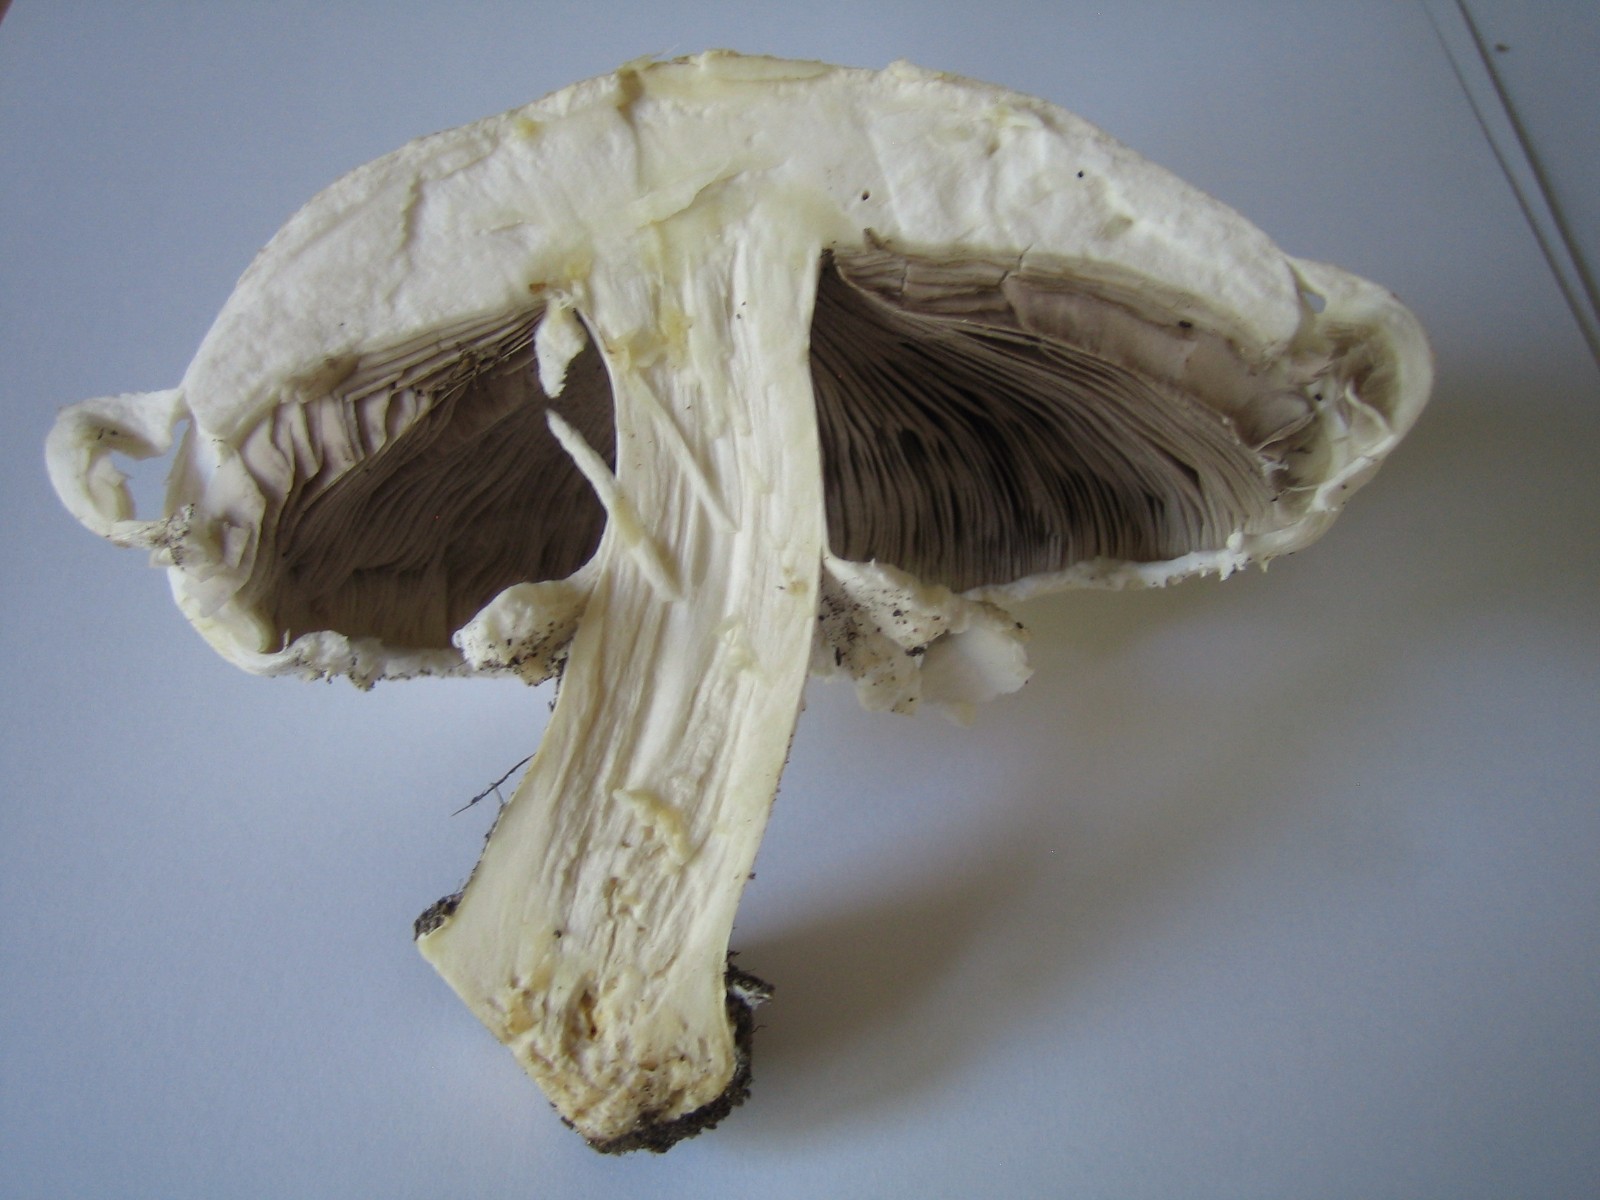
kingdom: Fungi
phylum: Basidiomycota
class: Agaricomycetes
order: Agaricales
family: Agaricaceae
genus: Agaricus
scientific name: Agaricus arvensis
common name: ager-champignon
